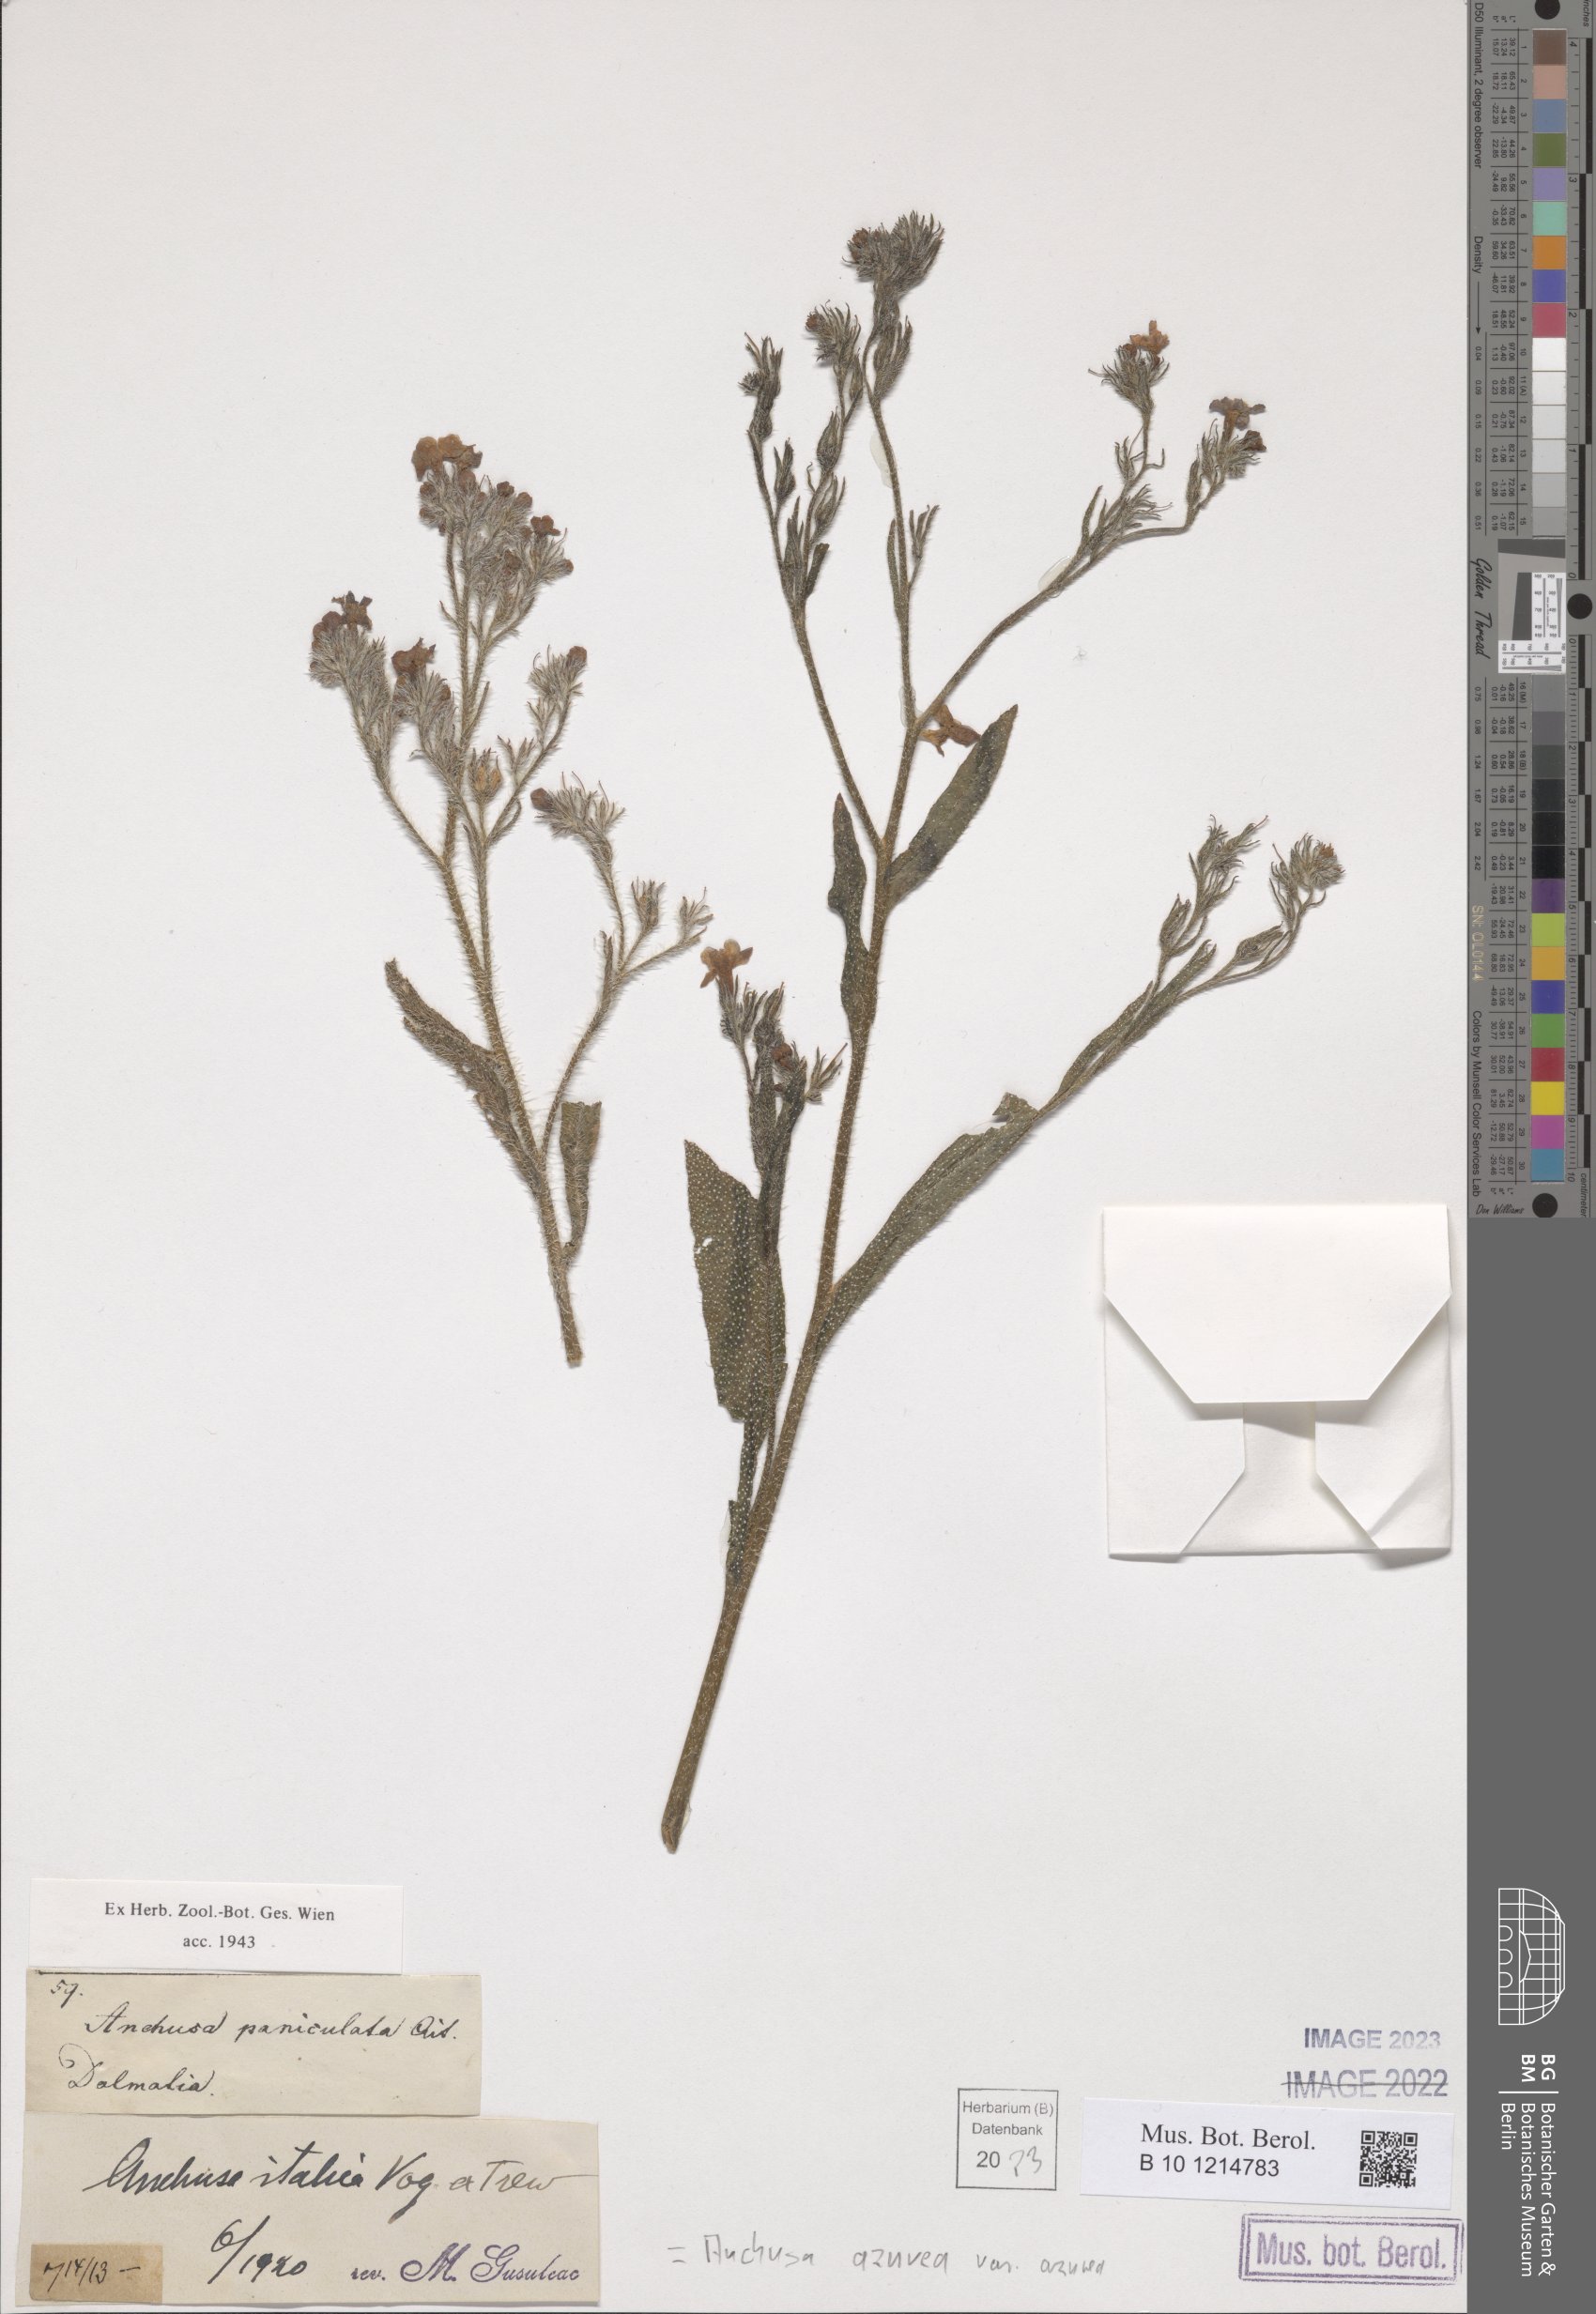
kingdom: Plantae
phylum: Tracheophyta
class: Magnoliopsida
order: Boraginales
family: Boraginaceae
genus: Anchusa
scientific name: Anchusa azurea
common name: Garden anchusa
